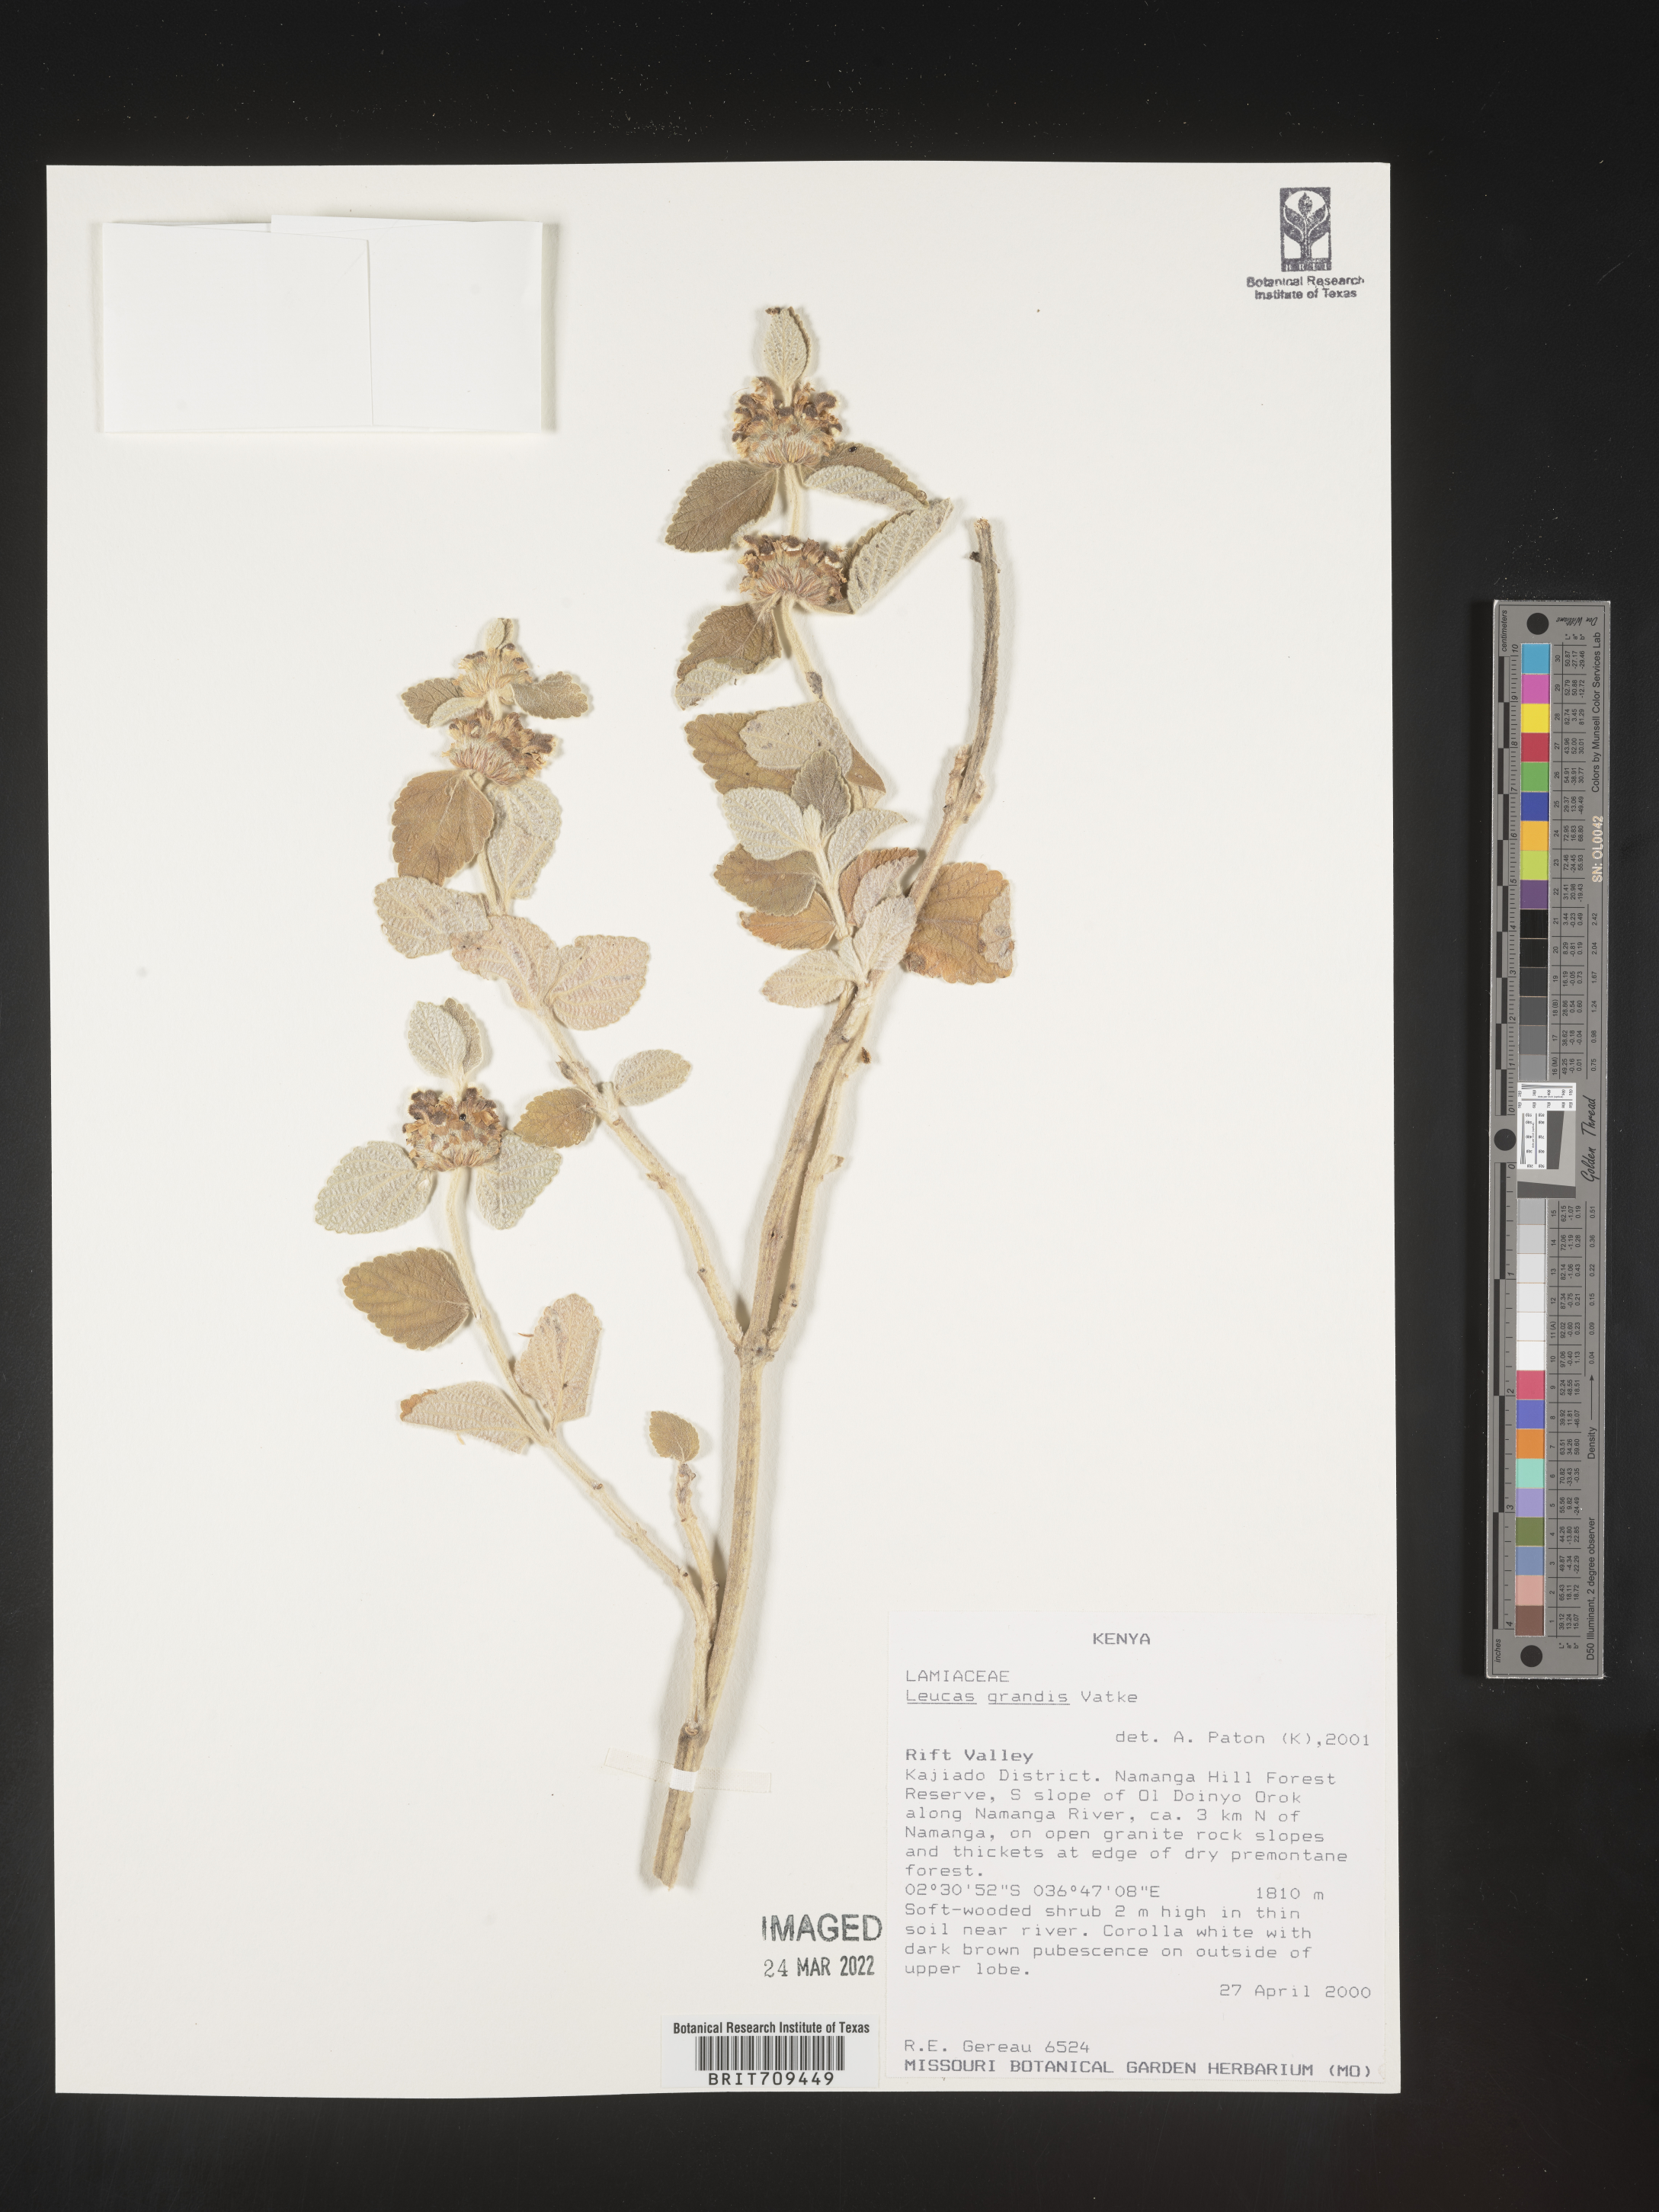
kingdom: Plantae
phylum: Tracheophyta
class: Magnoliopsida
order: Lamiales
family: Lamiaceae
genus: Leucas
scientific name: Leucas
